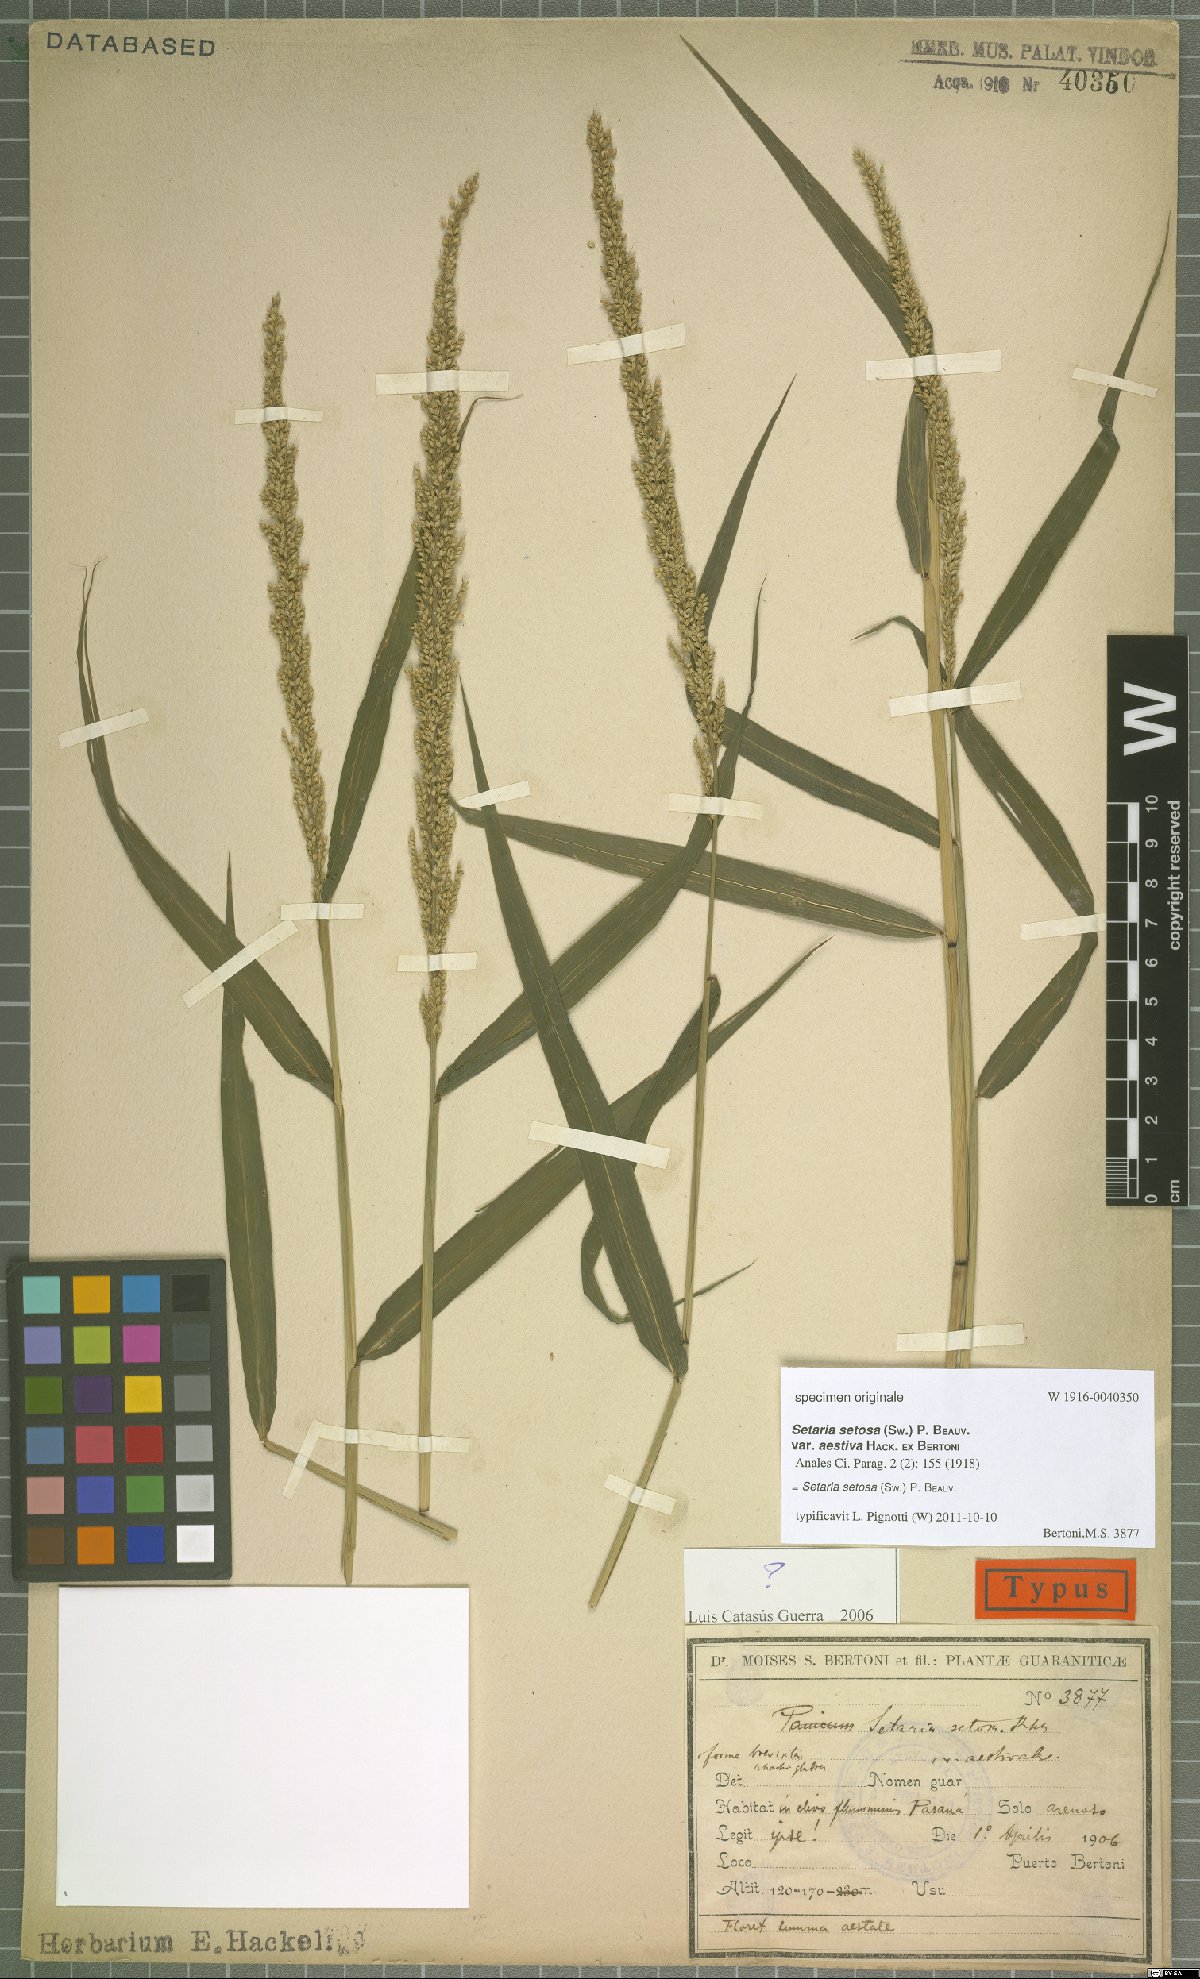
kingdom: Plantae
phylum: Tracheophyta
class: Liliopsida
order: Poales
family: Poaceae
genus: Setaria
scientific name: Setaria setosa
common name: West indies bristle grass
